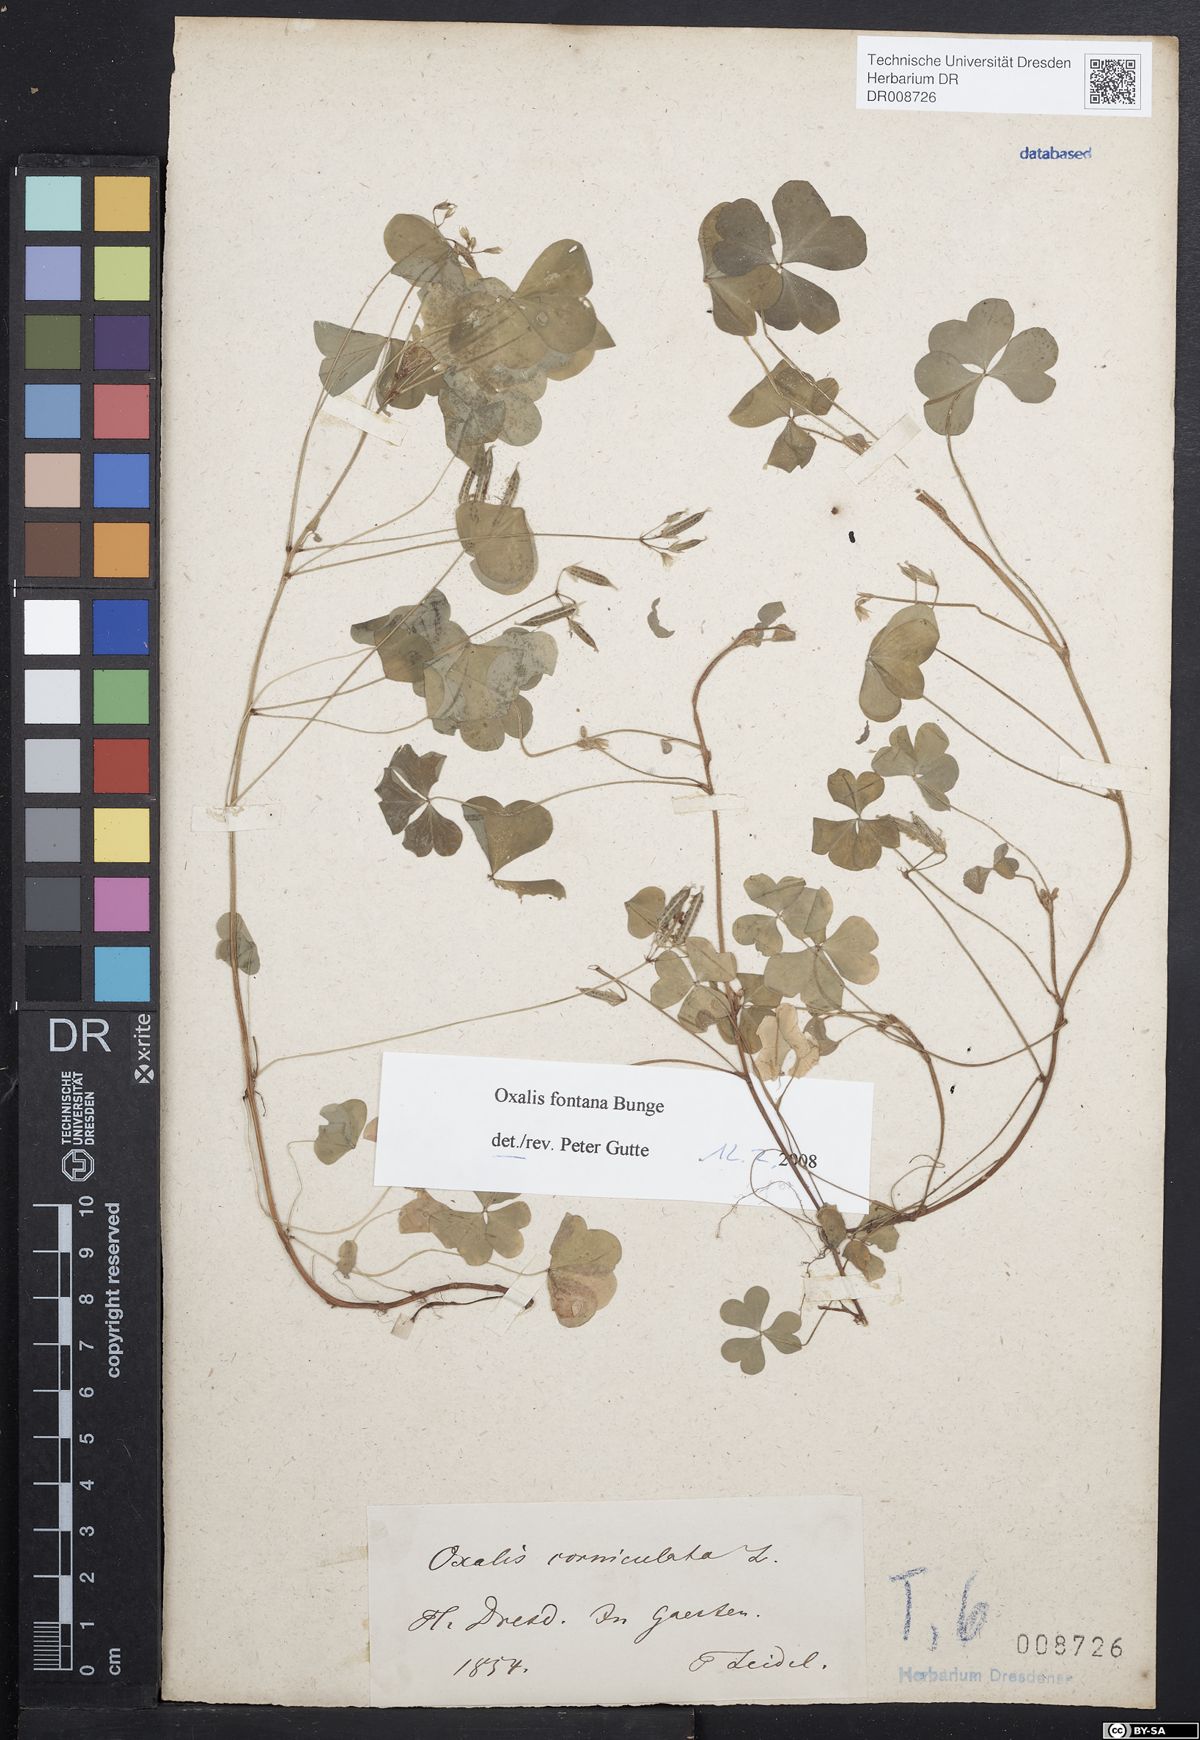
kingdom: Plantae
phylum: Tracheophyta
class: Magnoliopsida
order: Oxalidales
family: Oxalidaceae
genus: Oxalis
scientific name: Oxalis corniculata
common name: Procumbent yellow-sorrel
